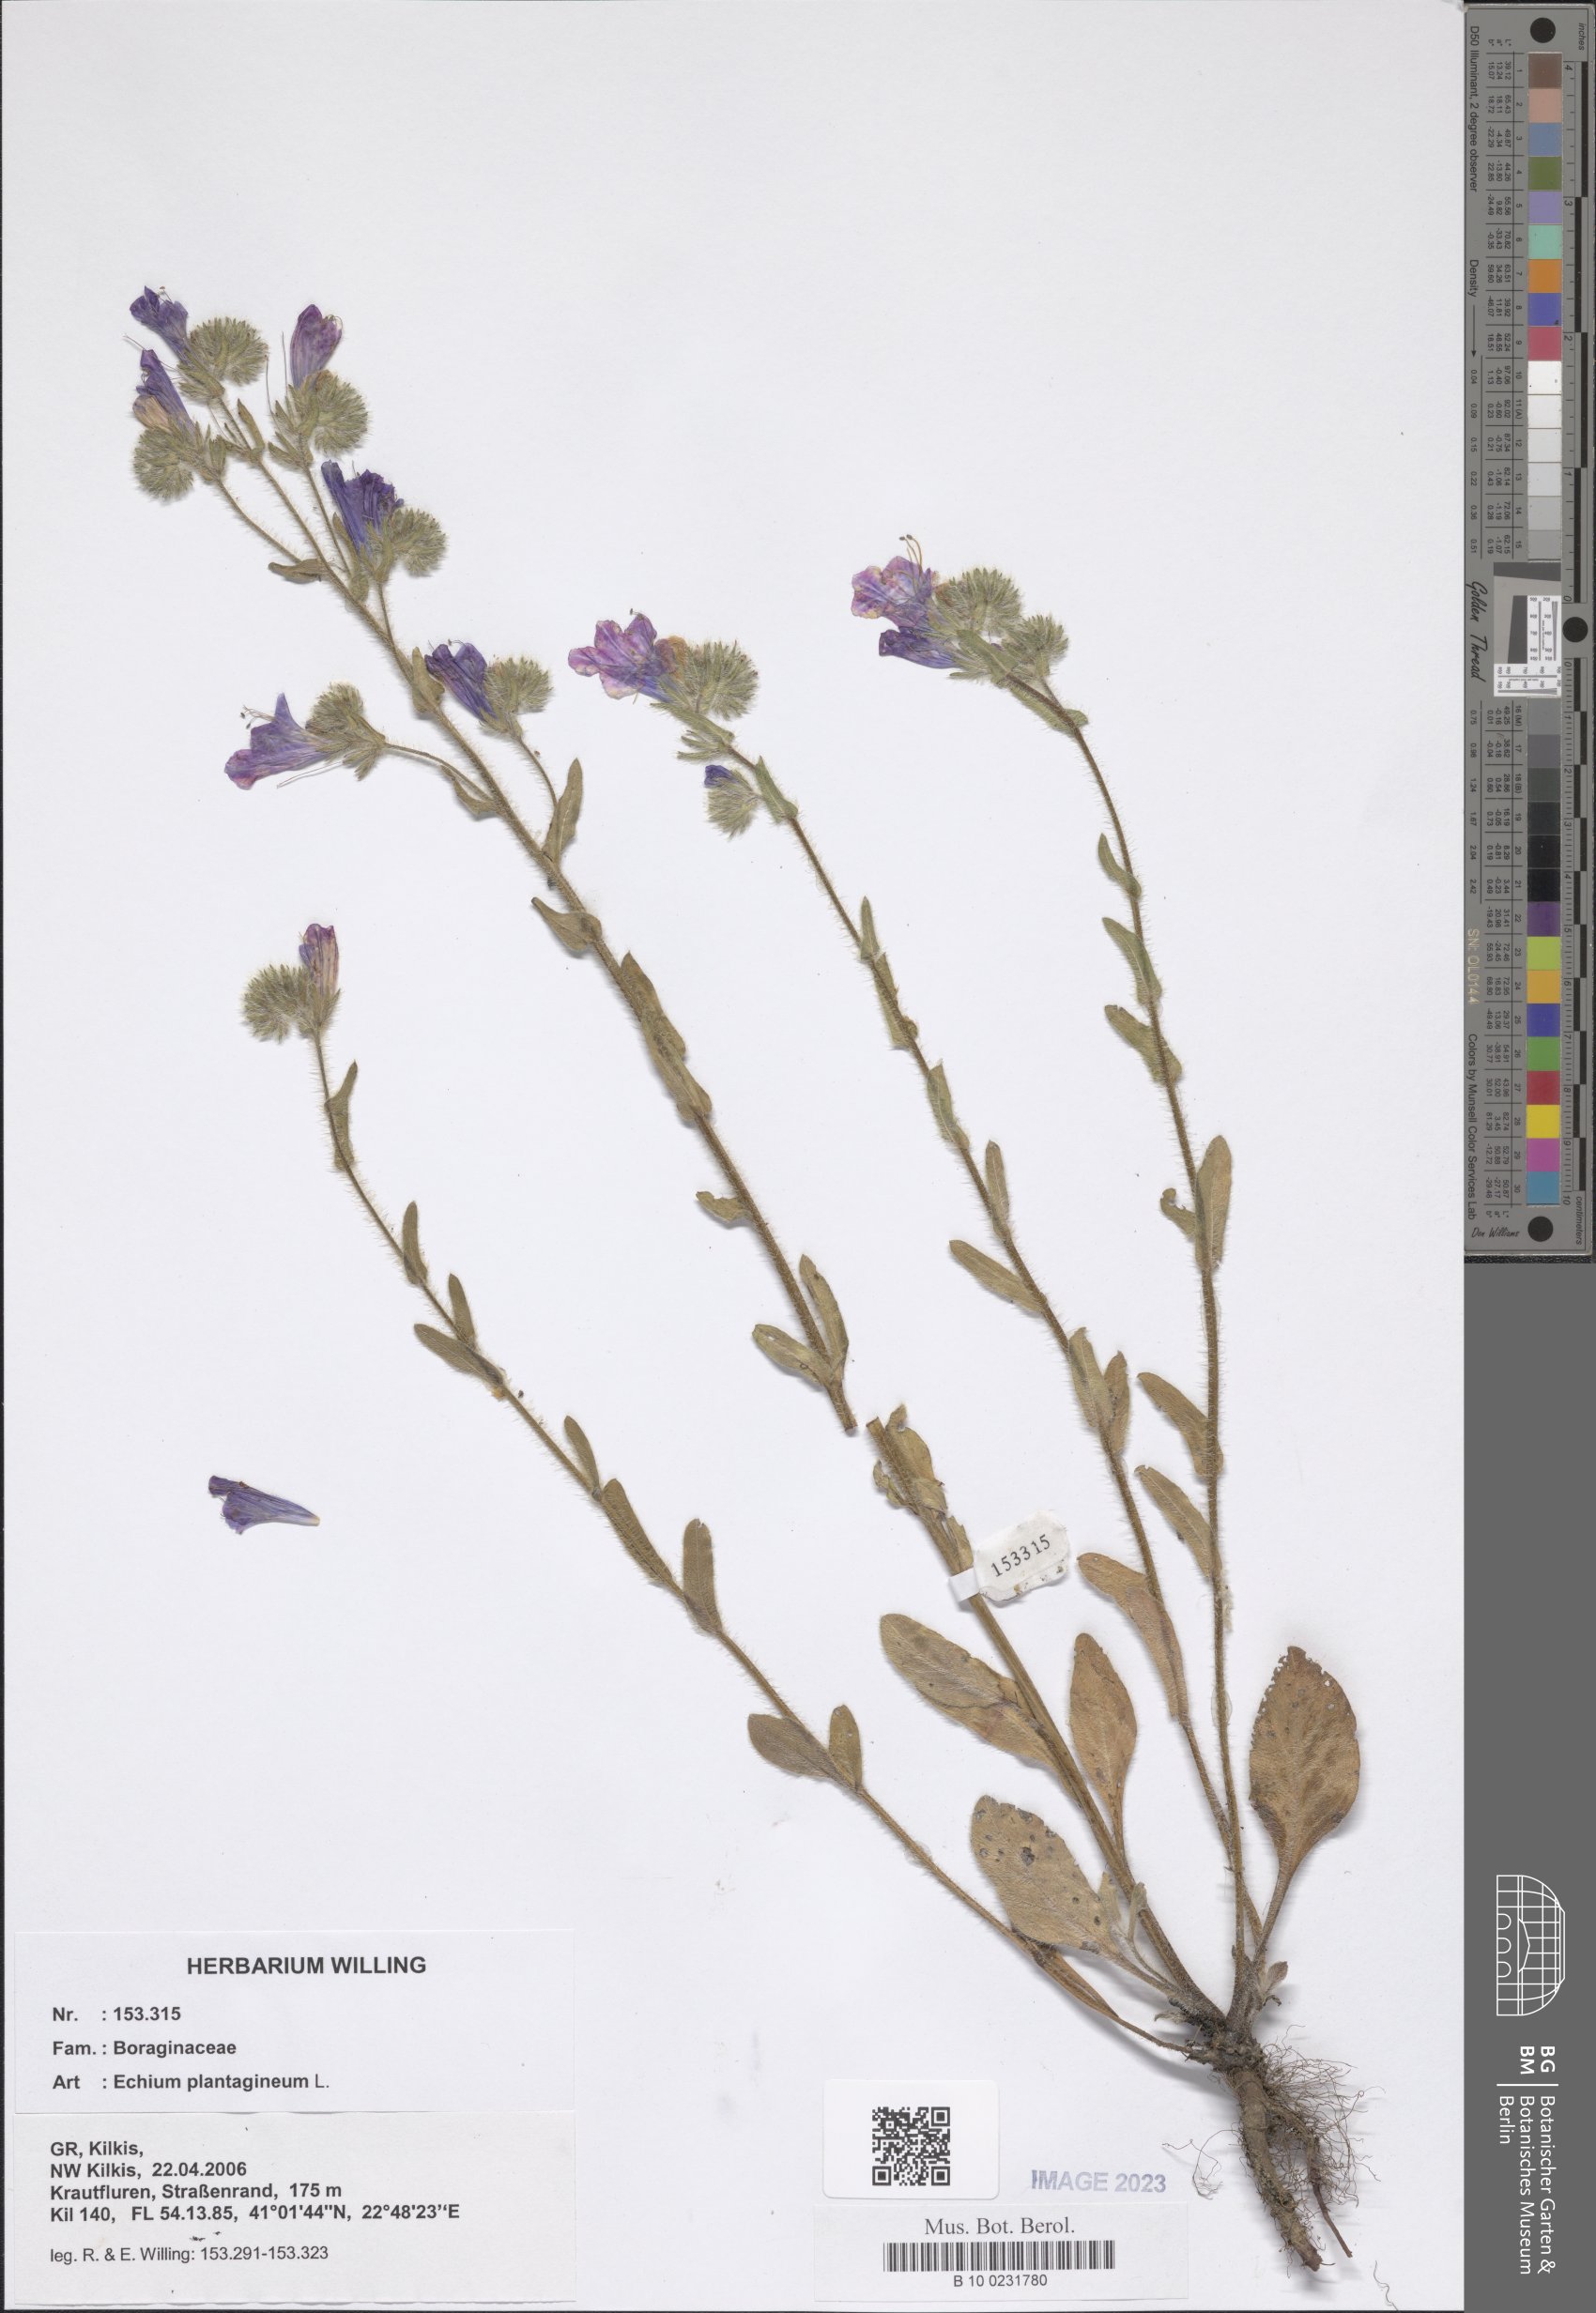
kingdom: Plantae
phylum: Tracheophyta
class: Magnoliopsida
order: Boraginales
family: Boraginaceae
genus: Echium
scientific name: Echium plantagineum
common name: Purple viper's-bugloss
